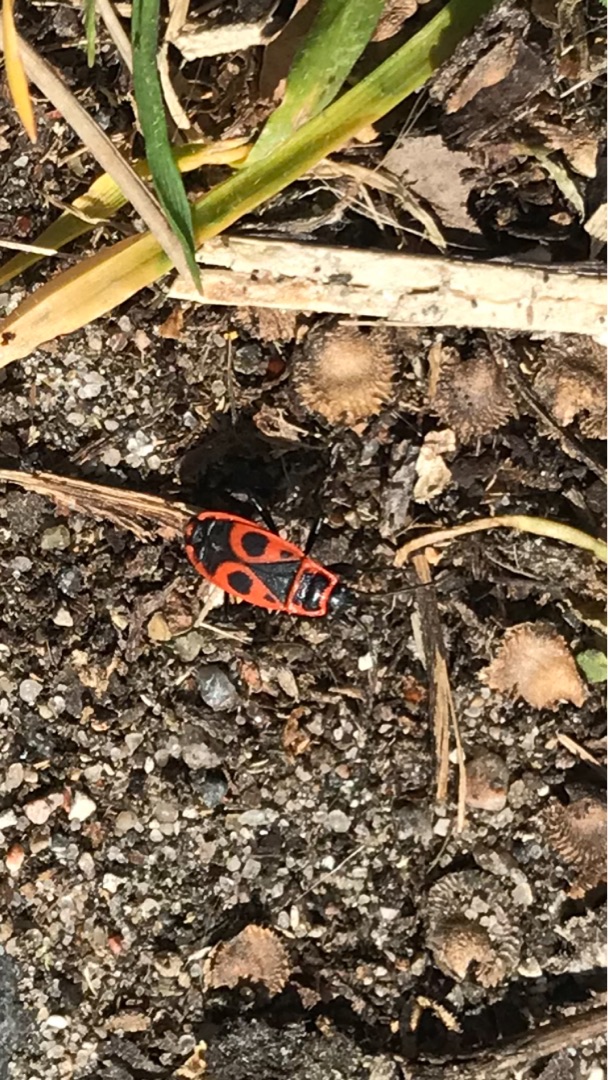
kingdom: Animalia
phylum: Arthropoda
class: Insecta
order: Hemiptera
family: Pyrrhocoridae
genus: Pyrrhocoris
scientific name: Pyrrhocoris apterus
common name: Ildtæge
